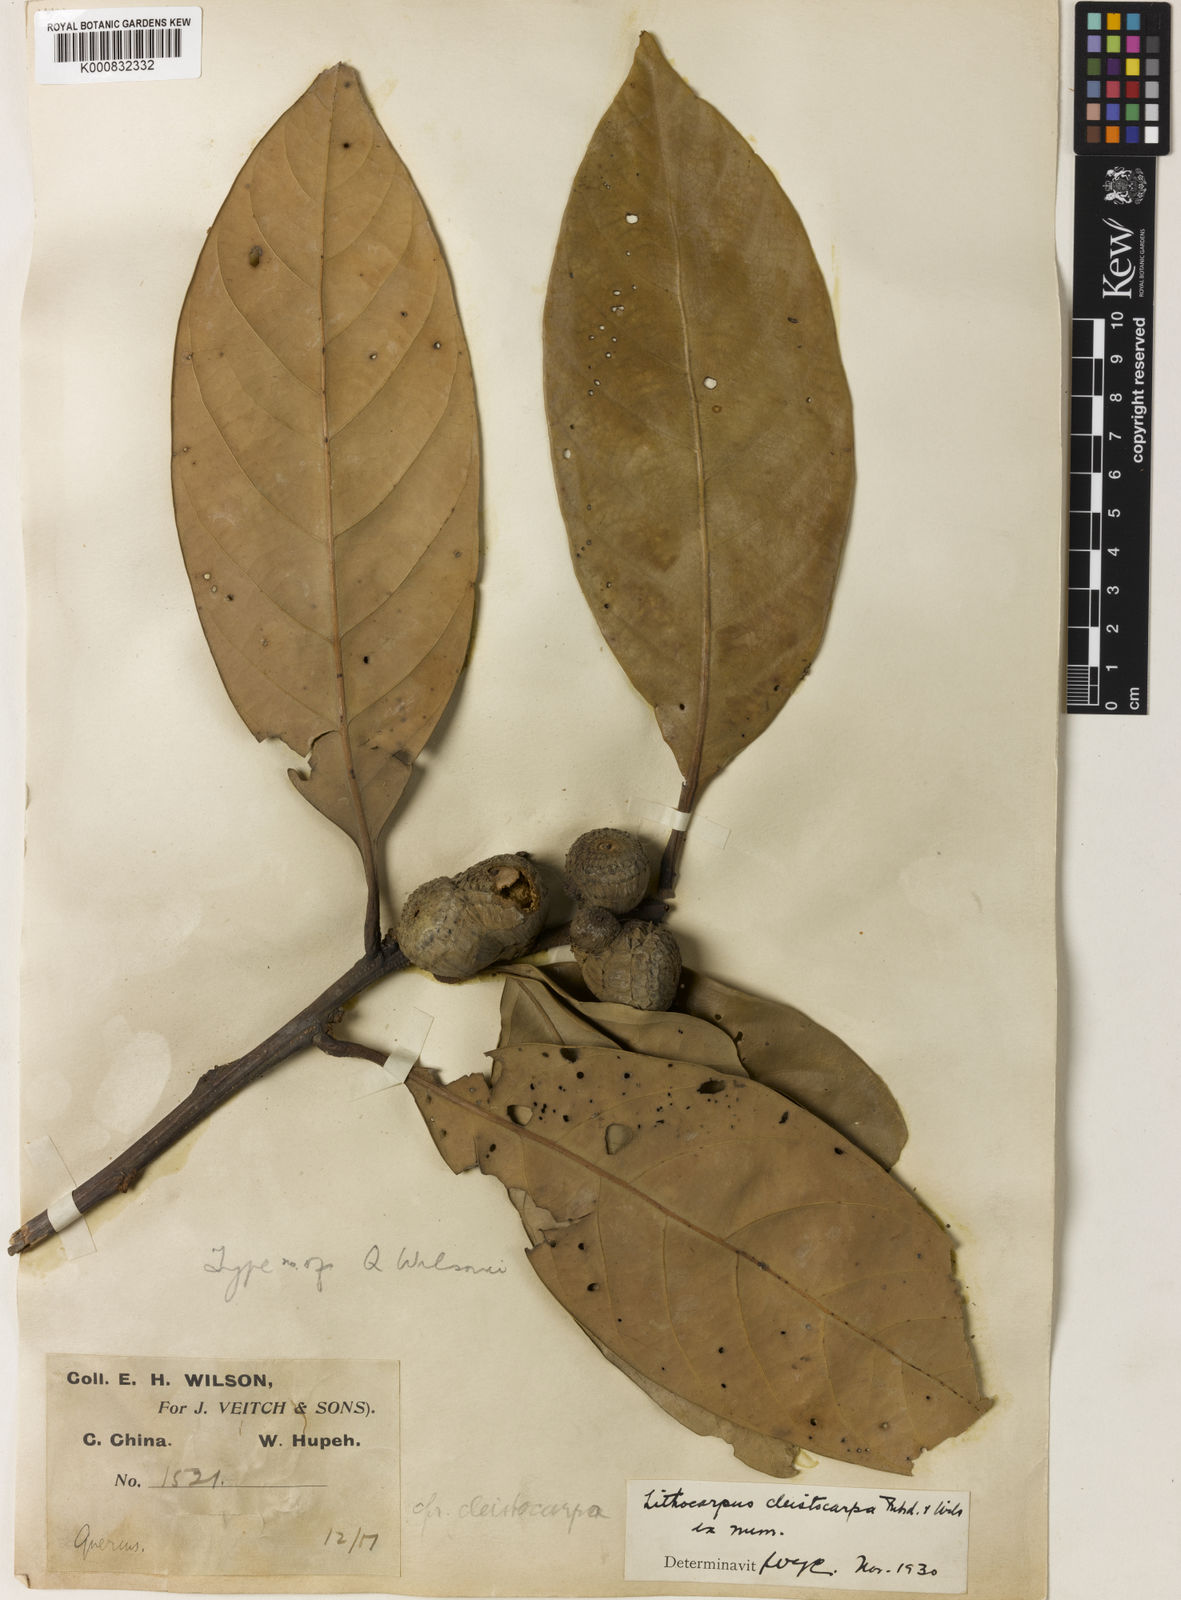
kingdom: Plantae
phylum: Tracheophyta
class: Magnoliopsida
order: Fagales
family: Fagaceae
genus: Lithocarpus
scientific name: Lithocarpus cleistocarpus
